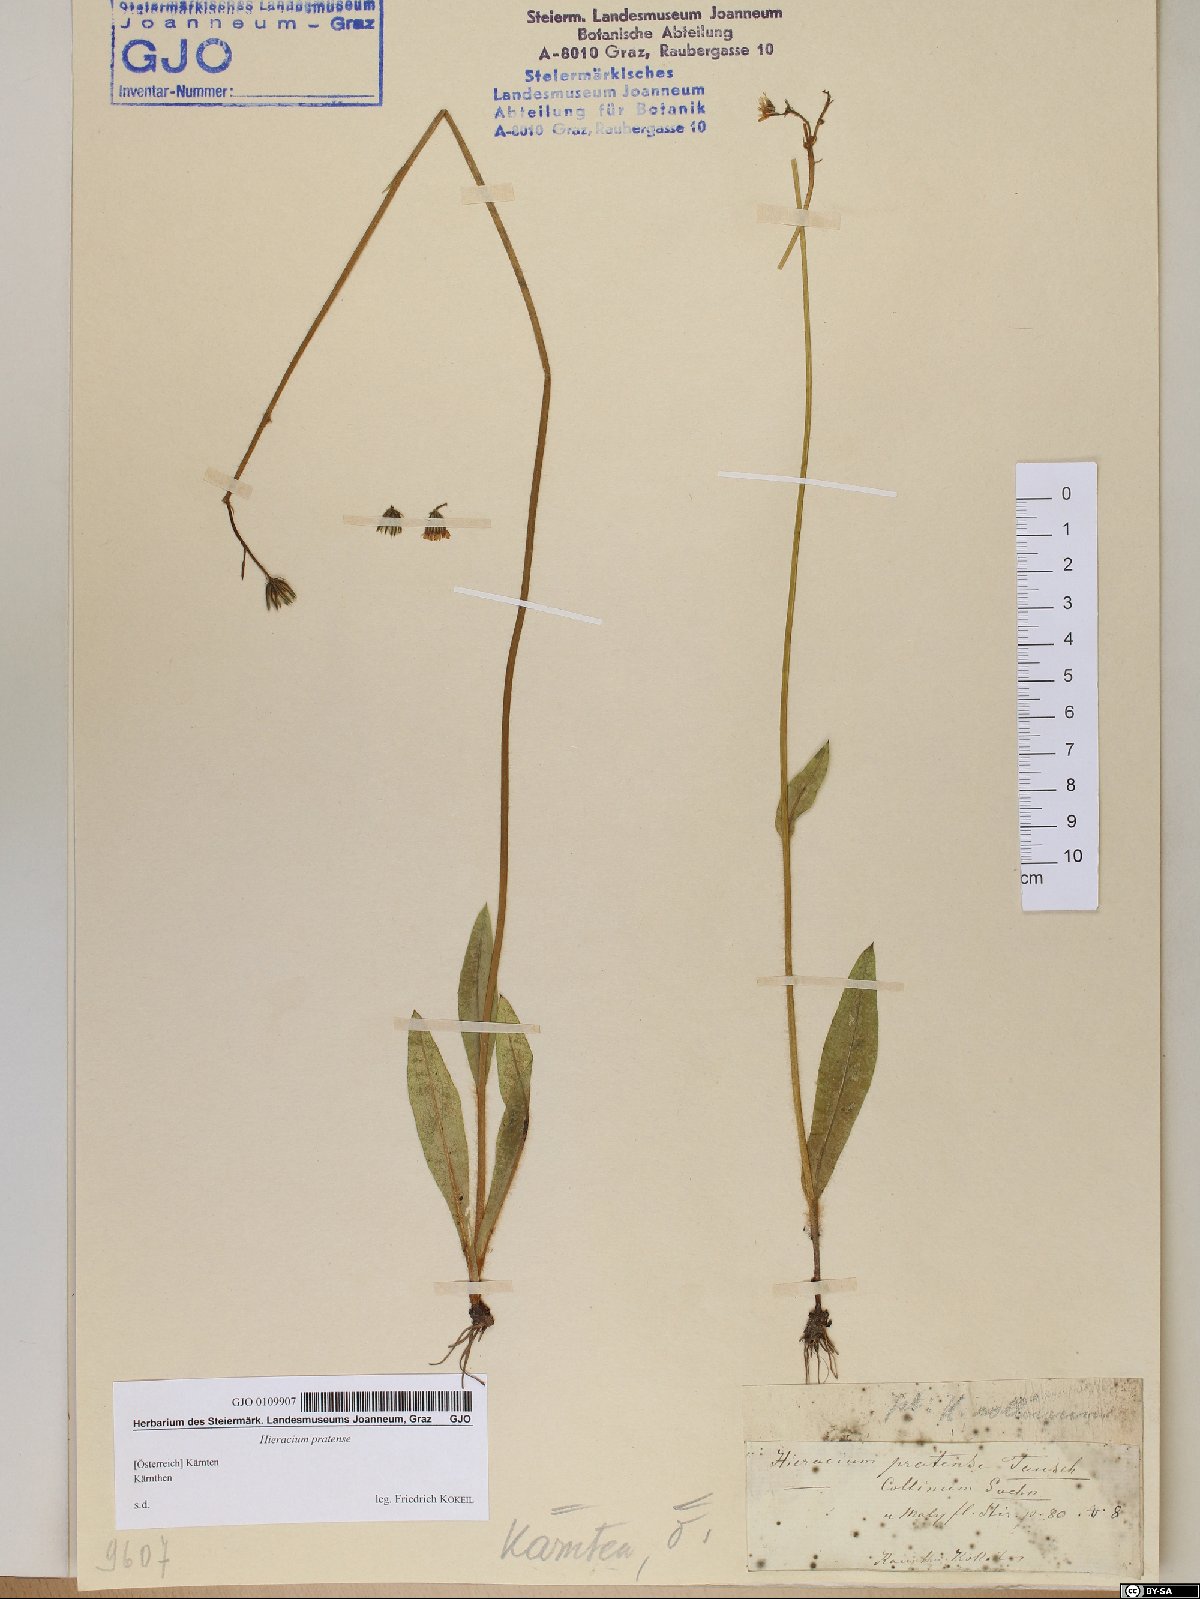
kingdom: Plantae
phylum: Tracheophyta
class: Magnoliopsida
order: Asterales
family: Asteraceae
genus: Pilosella
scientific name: Pilosella caespitosa
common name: Yellow fox-and-cubs
